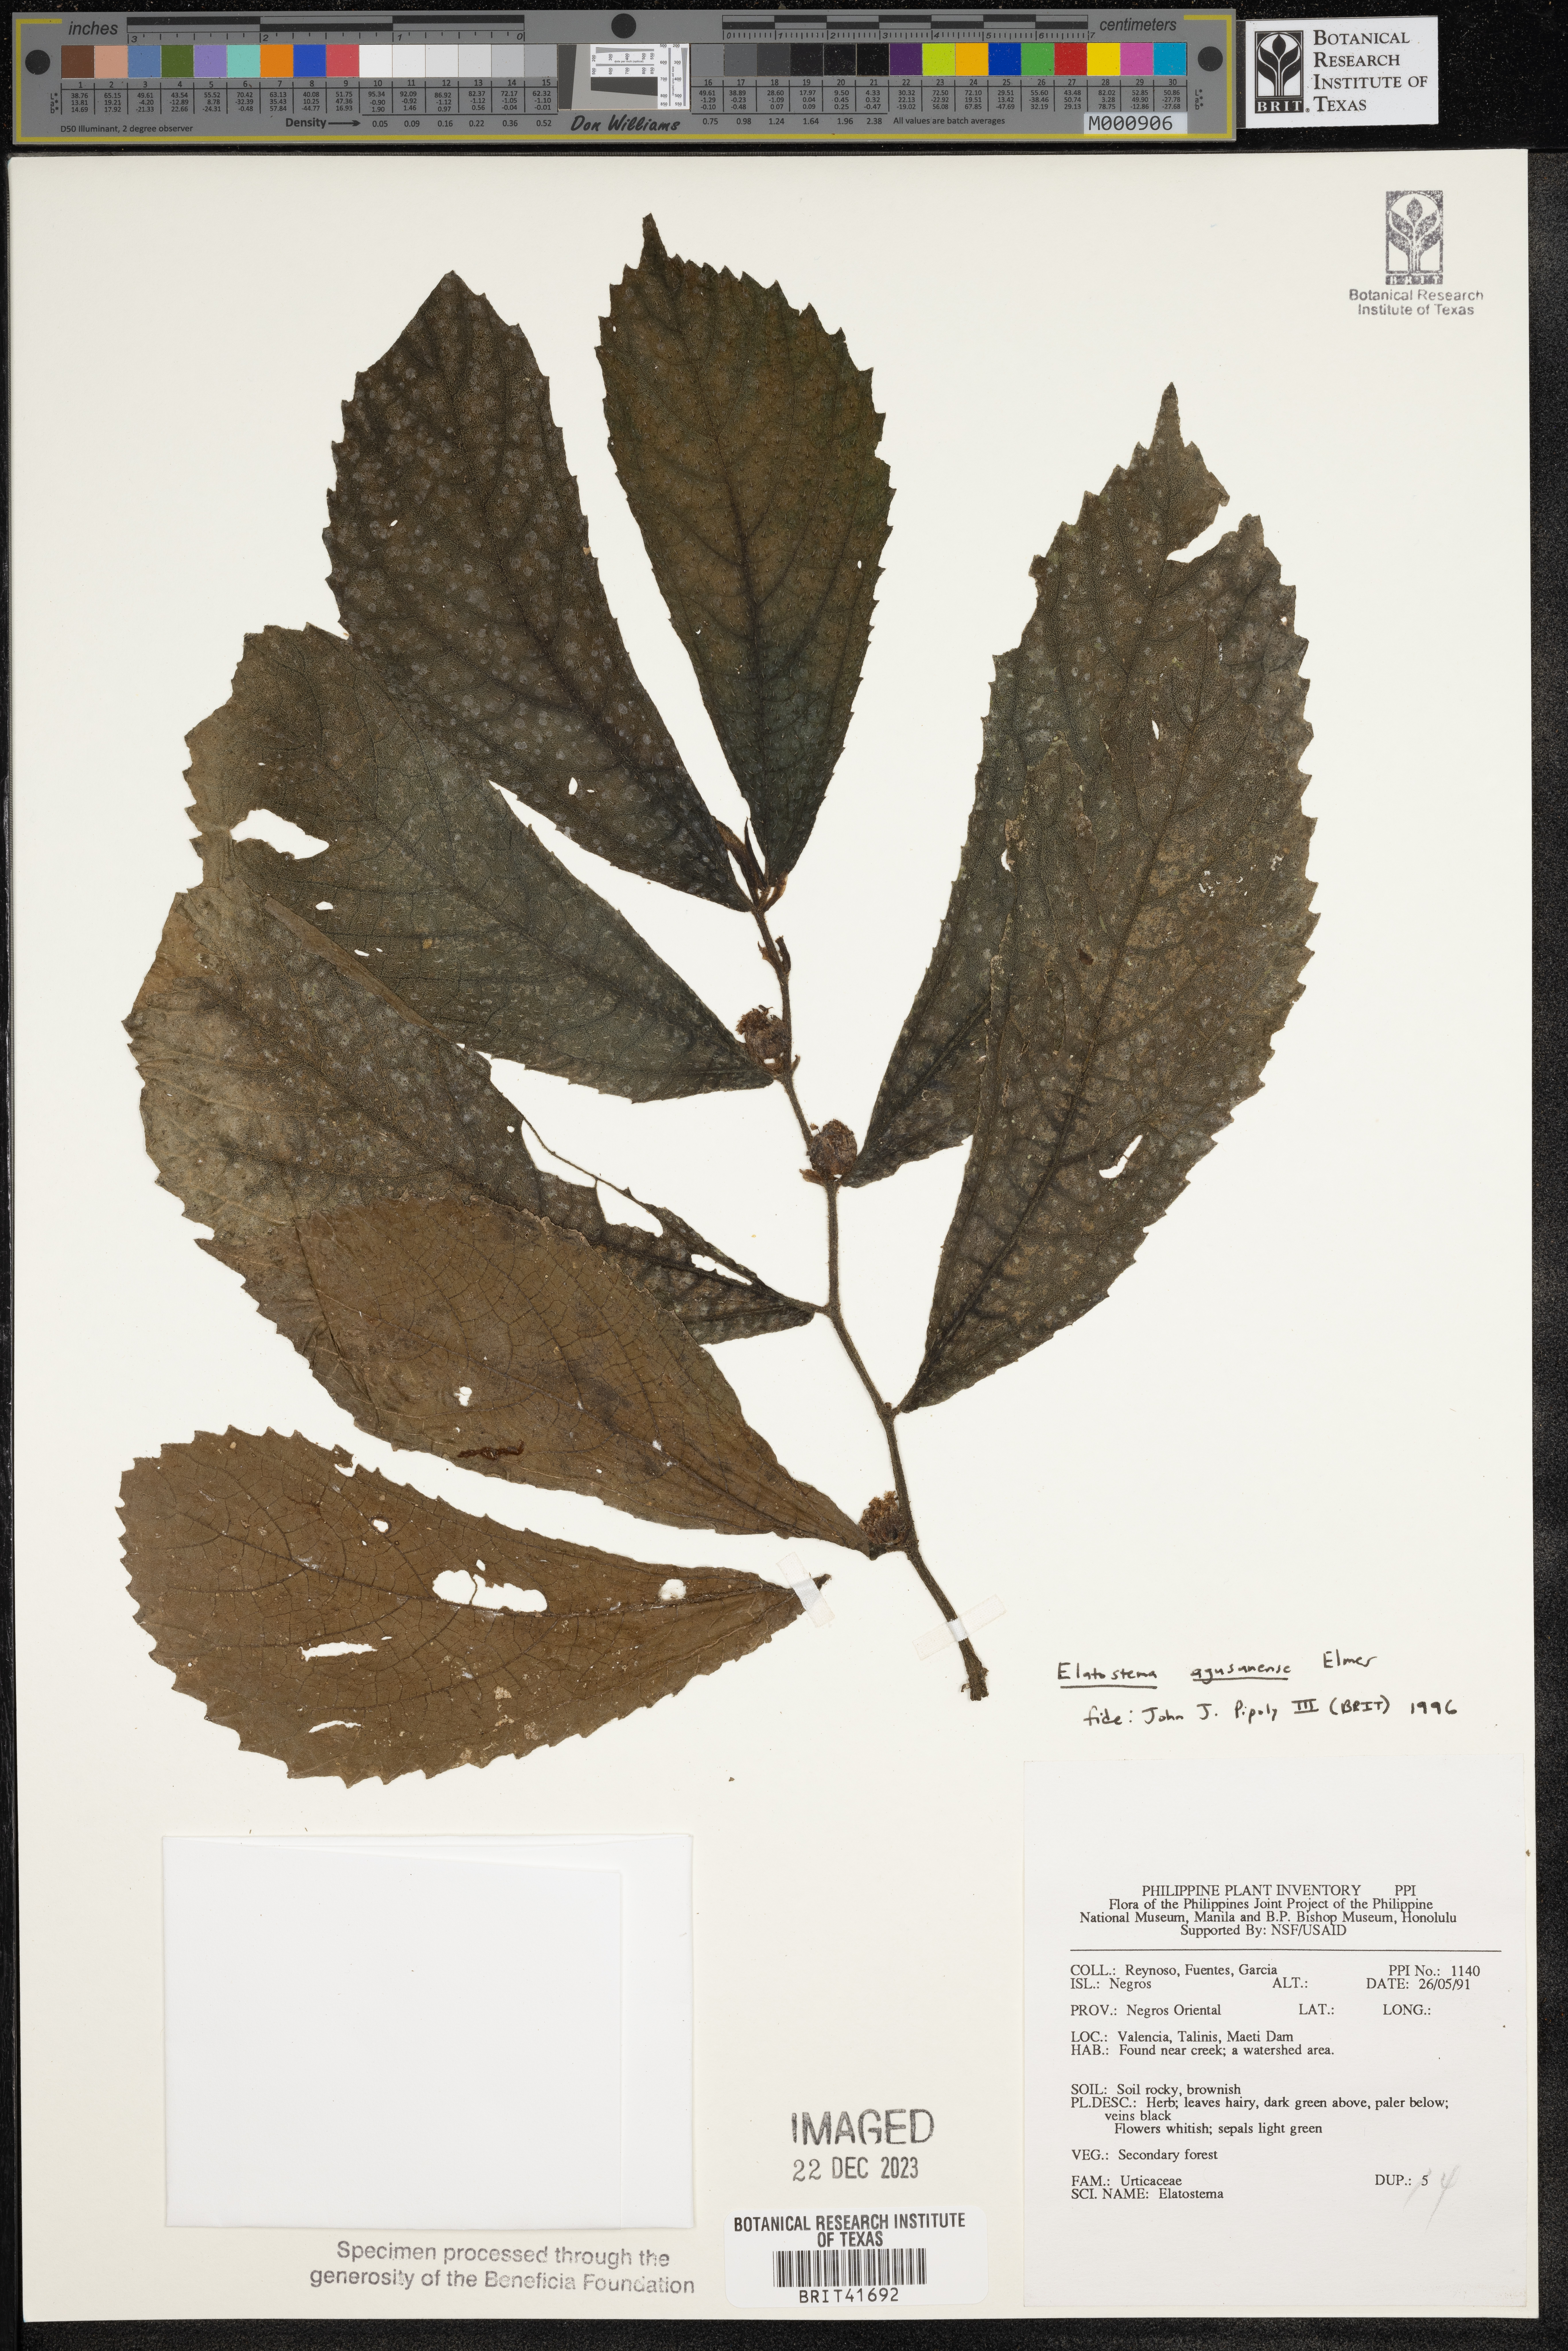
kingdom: Plantae
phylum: Tracheophyta
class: Magnoliopsida
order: Rosales
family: Urticaceae
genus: Elatostema
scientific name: Elatostema agusanense
